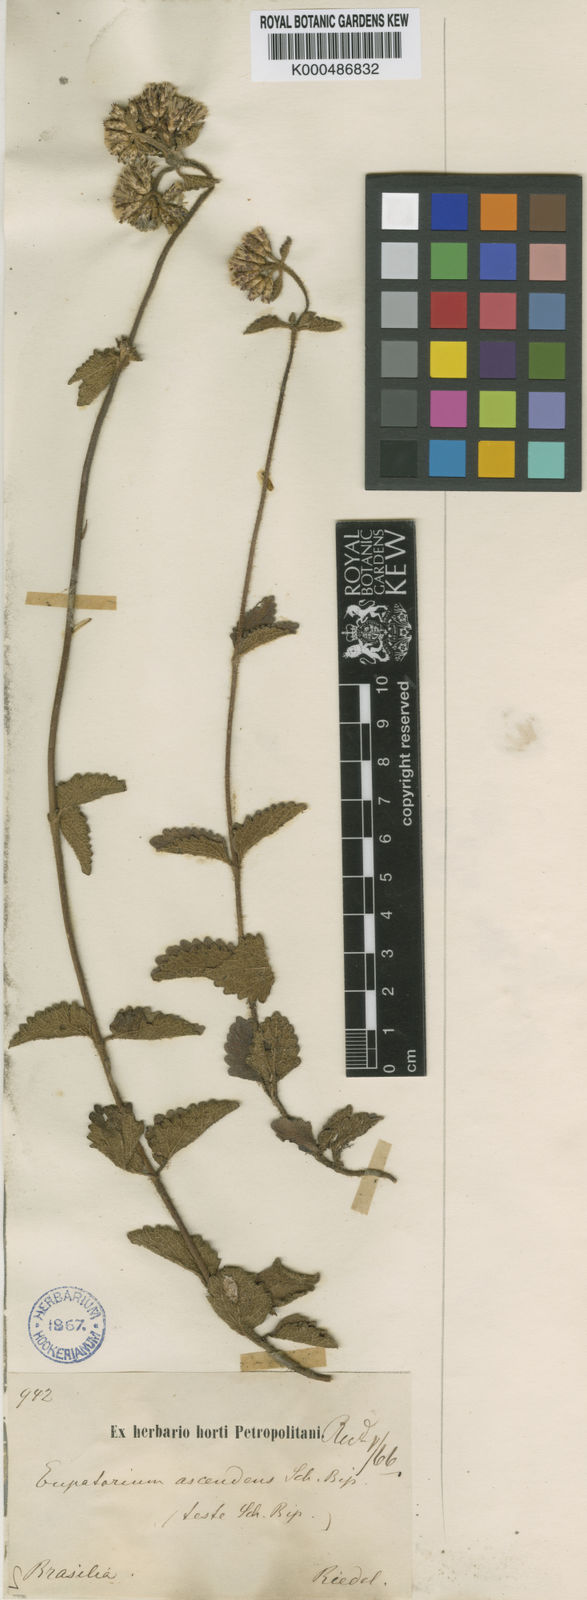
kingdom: Plantae
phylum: Tracheophyta
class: Magnoliopsida
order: Asterales
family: Asteraceae
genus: Chromolaena
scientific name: Chromolaena ascendens
